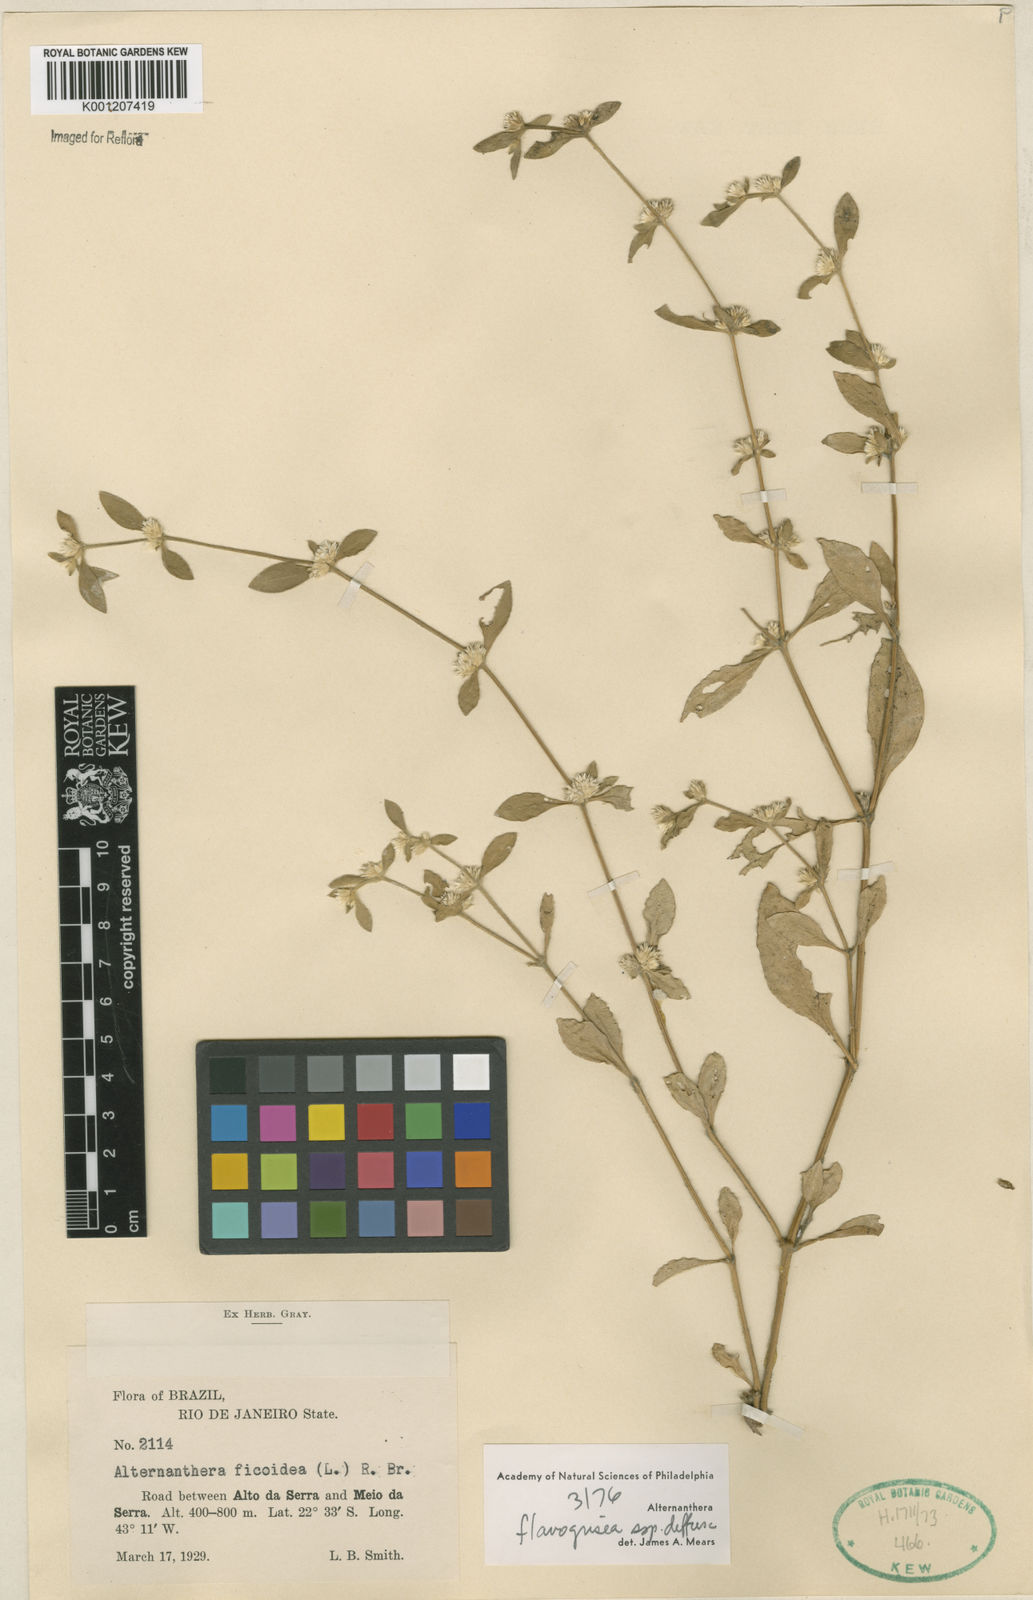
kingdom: Plantae
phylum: Tracheophyta
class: Magnoliopsida
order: Caryophyllales
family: Amaranthaceae
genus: Alternanthera
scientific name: Alternanthera halimifolia
